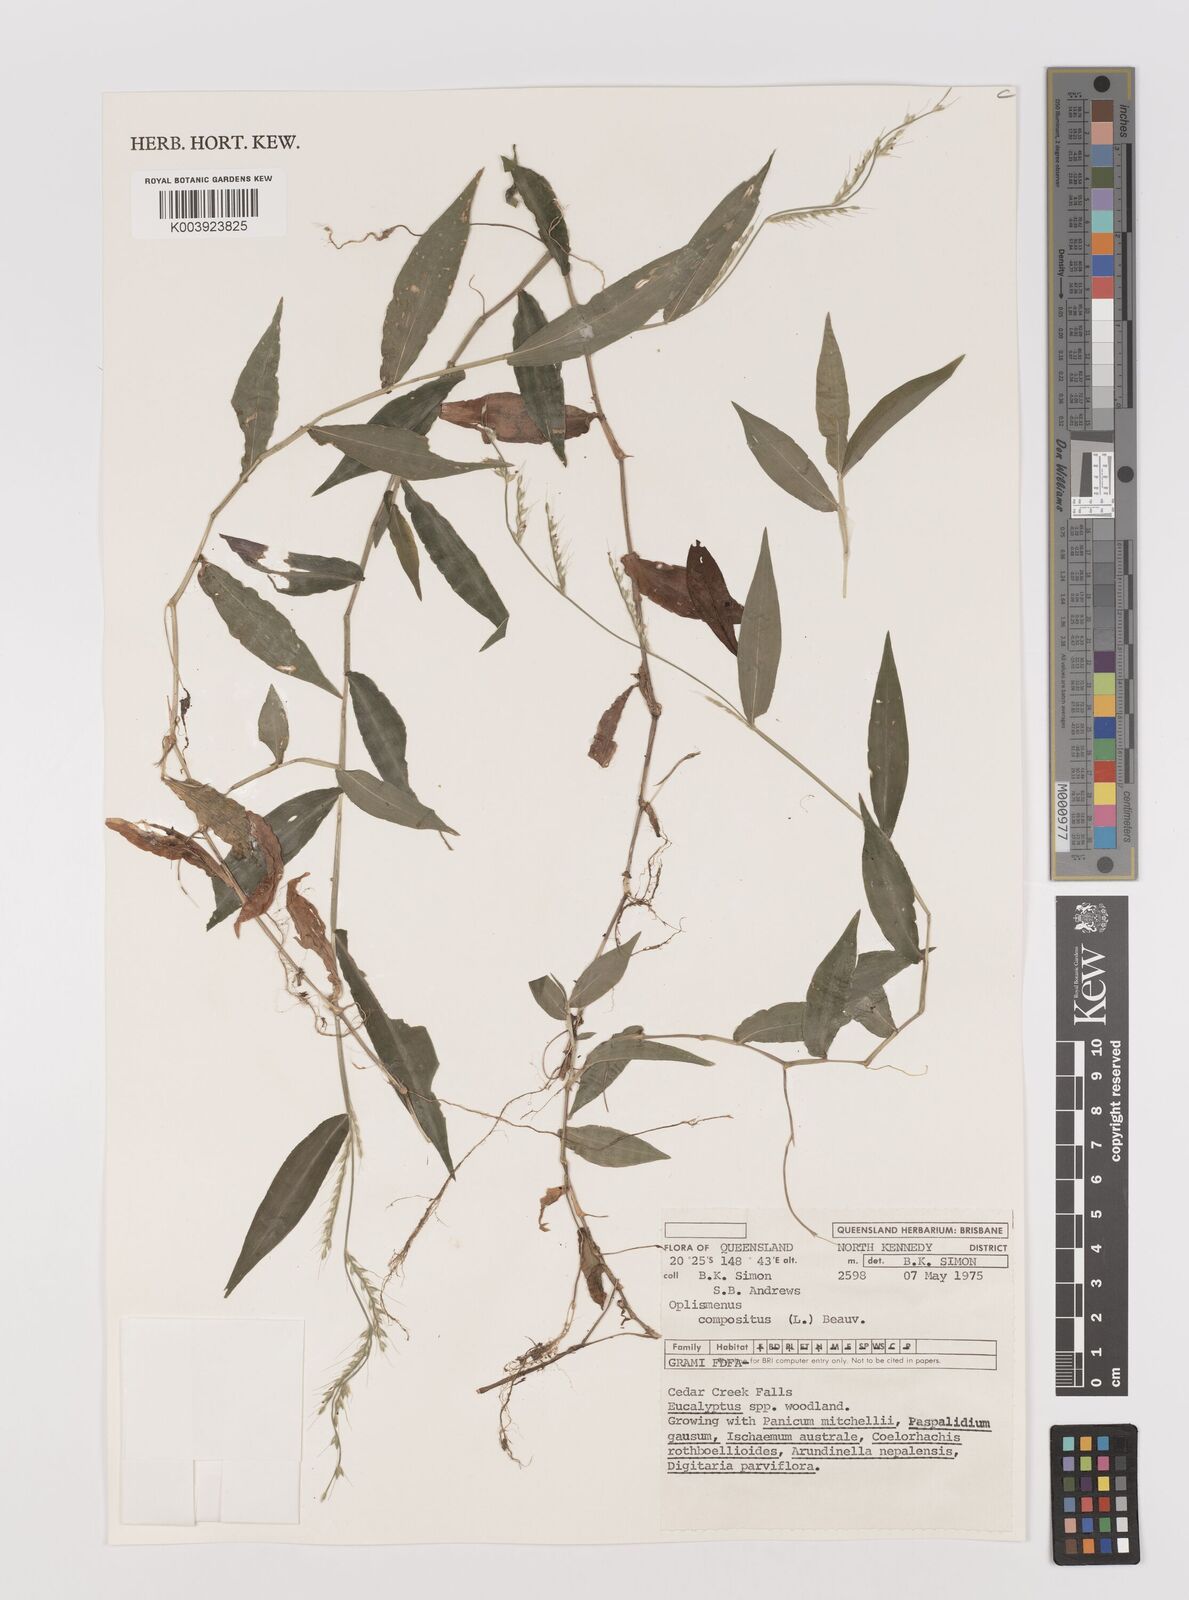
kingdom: Plantae
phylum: Tracheophyta
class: Liliopsida
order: Poales
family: Poaceae
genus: Oplismenus
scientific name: Oplismenus compositus
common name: Running mountain grass
